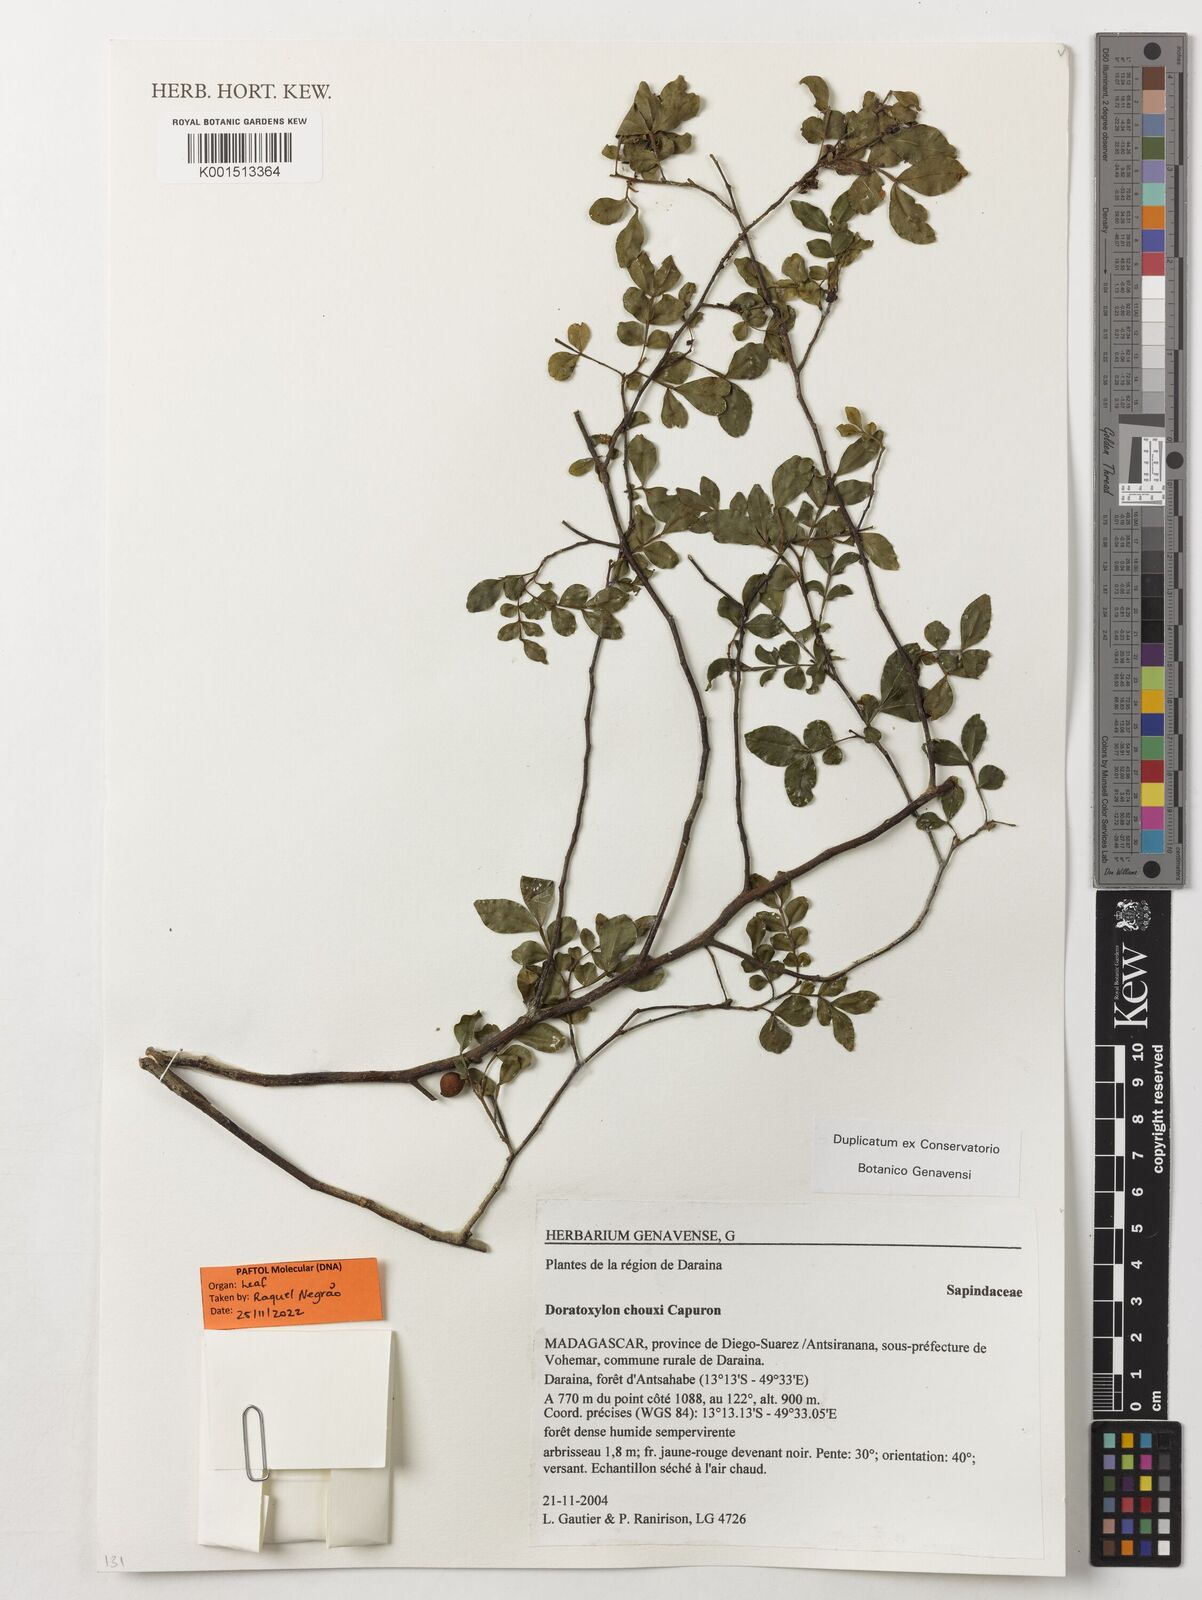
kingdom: Plantae
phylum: Tracheophyta
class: Magnoliopsida
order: Sapindales
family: Sapindaceae
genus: Doratoxylon
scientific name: Doratoxylon chouxii
